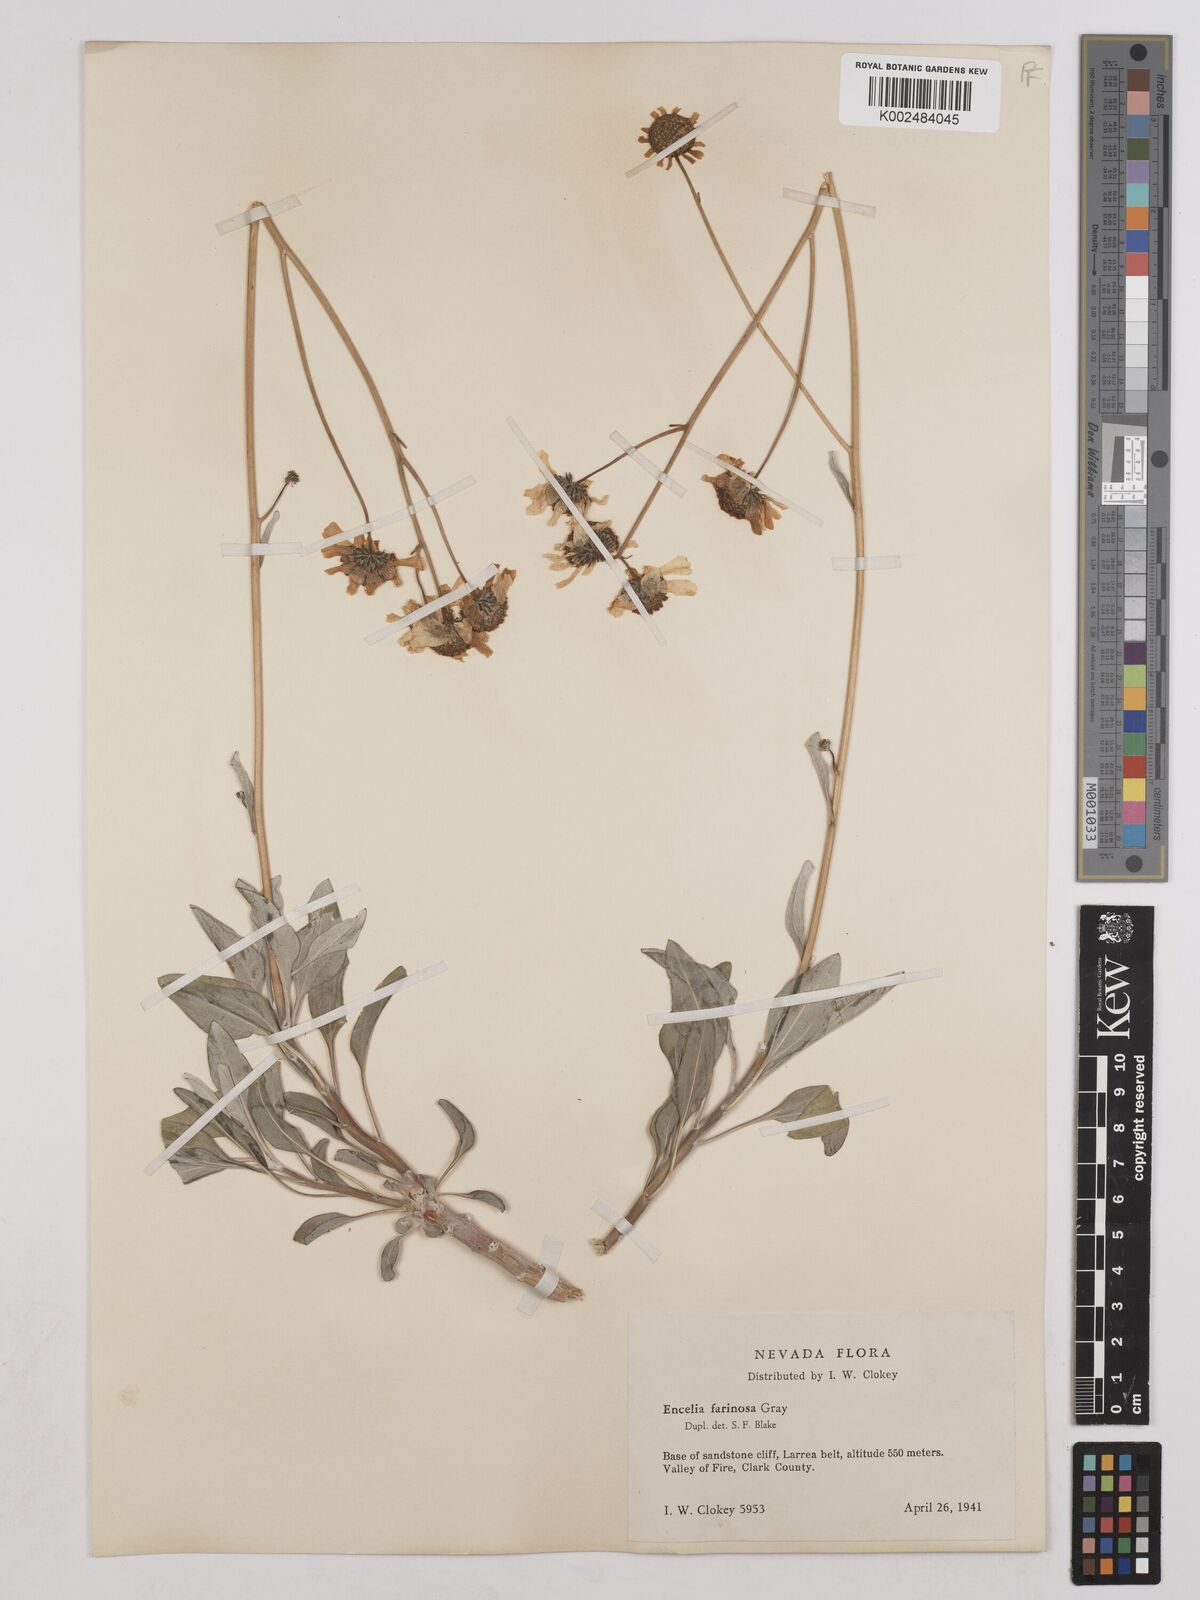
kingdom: Plantae
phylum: Tracheophyta
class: Magnoliopsida
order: Asterales
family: Asteraceae
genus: Encelia
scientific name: Encelia farinosa
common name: Brittlebush
